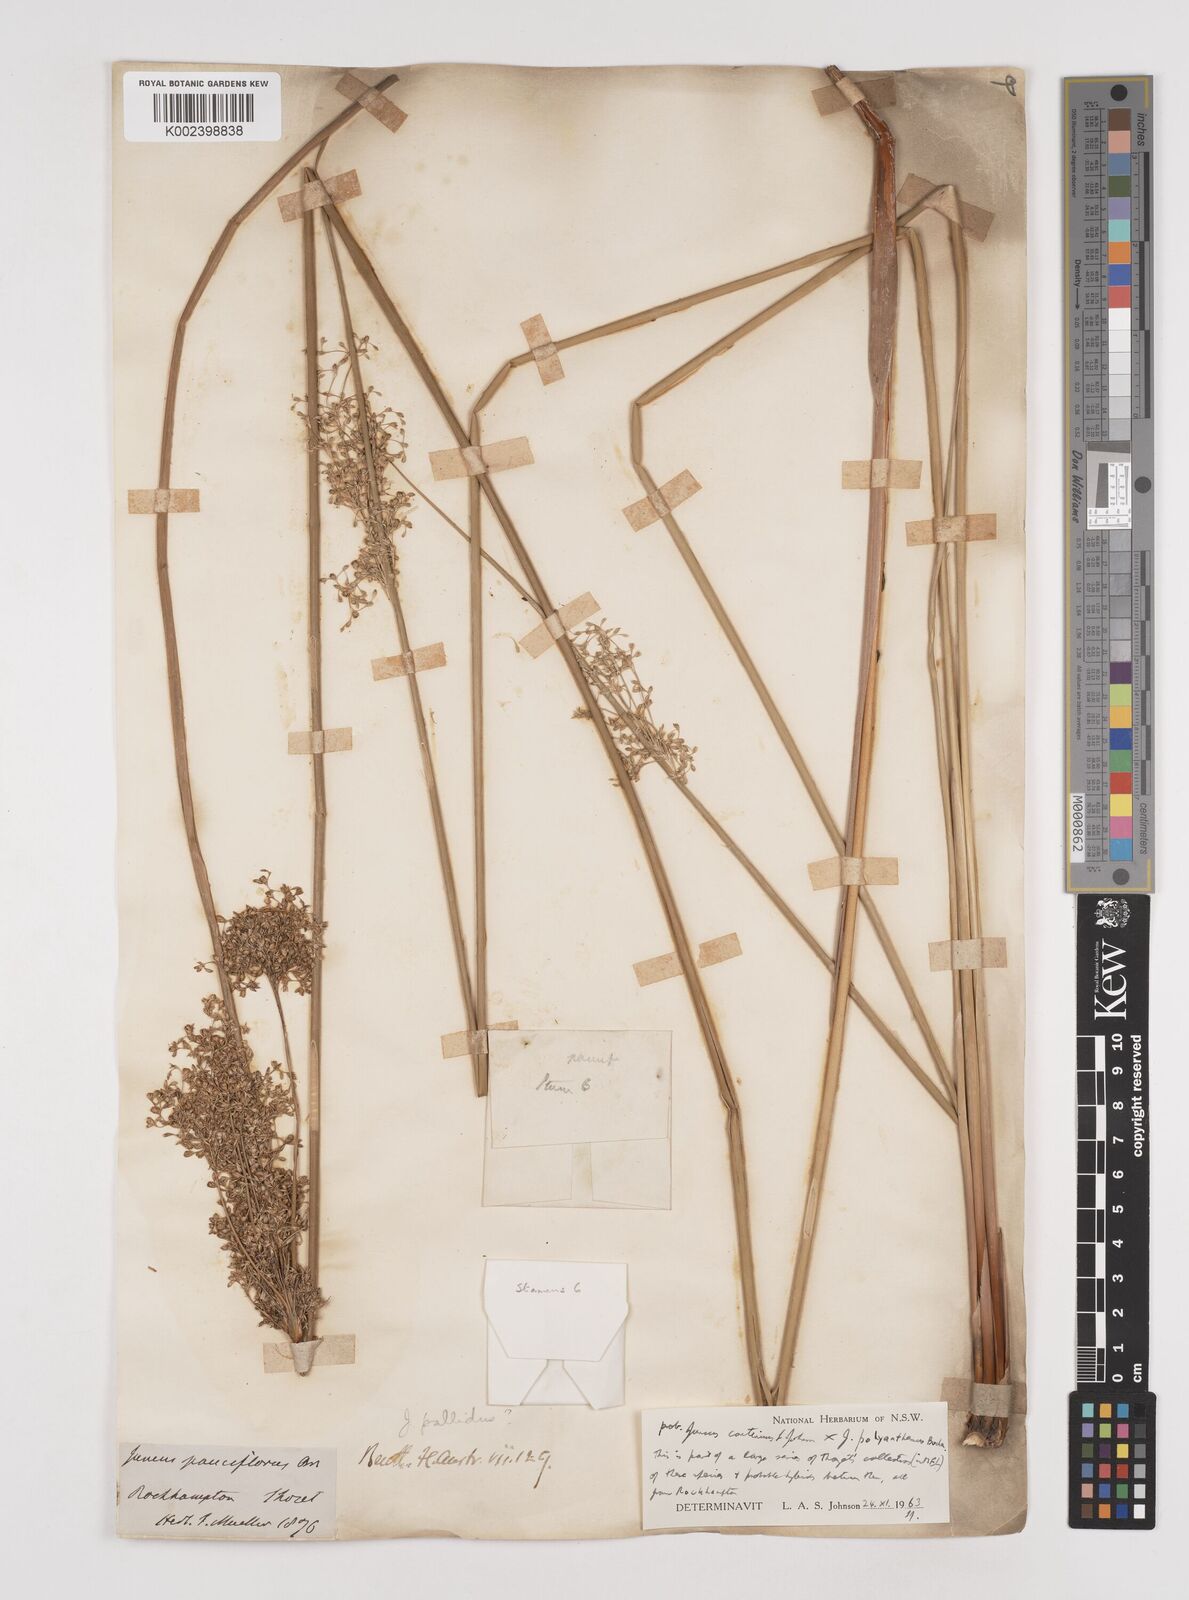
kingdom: Plantae
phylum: Tracheophyta
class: Liliopsida
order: Poales
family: Juncaceae
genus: Juncus
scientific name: Juncus continuus
